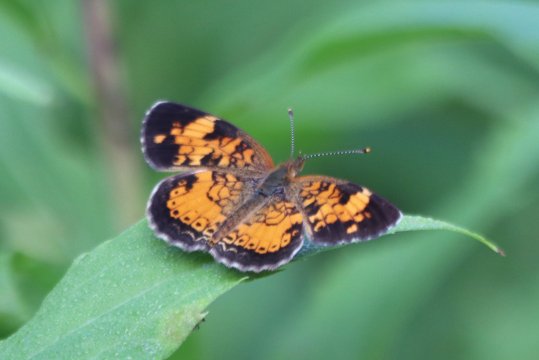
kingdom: Animalia
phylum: Arthropoda
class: Insecta
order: Lepidoptera
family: Nymphalidae
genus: Phyciodes
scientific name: Phyciodes tharos
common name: Northern Crescent
